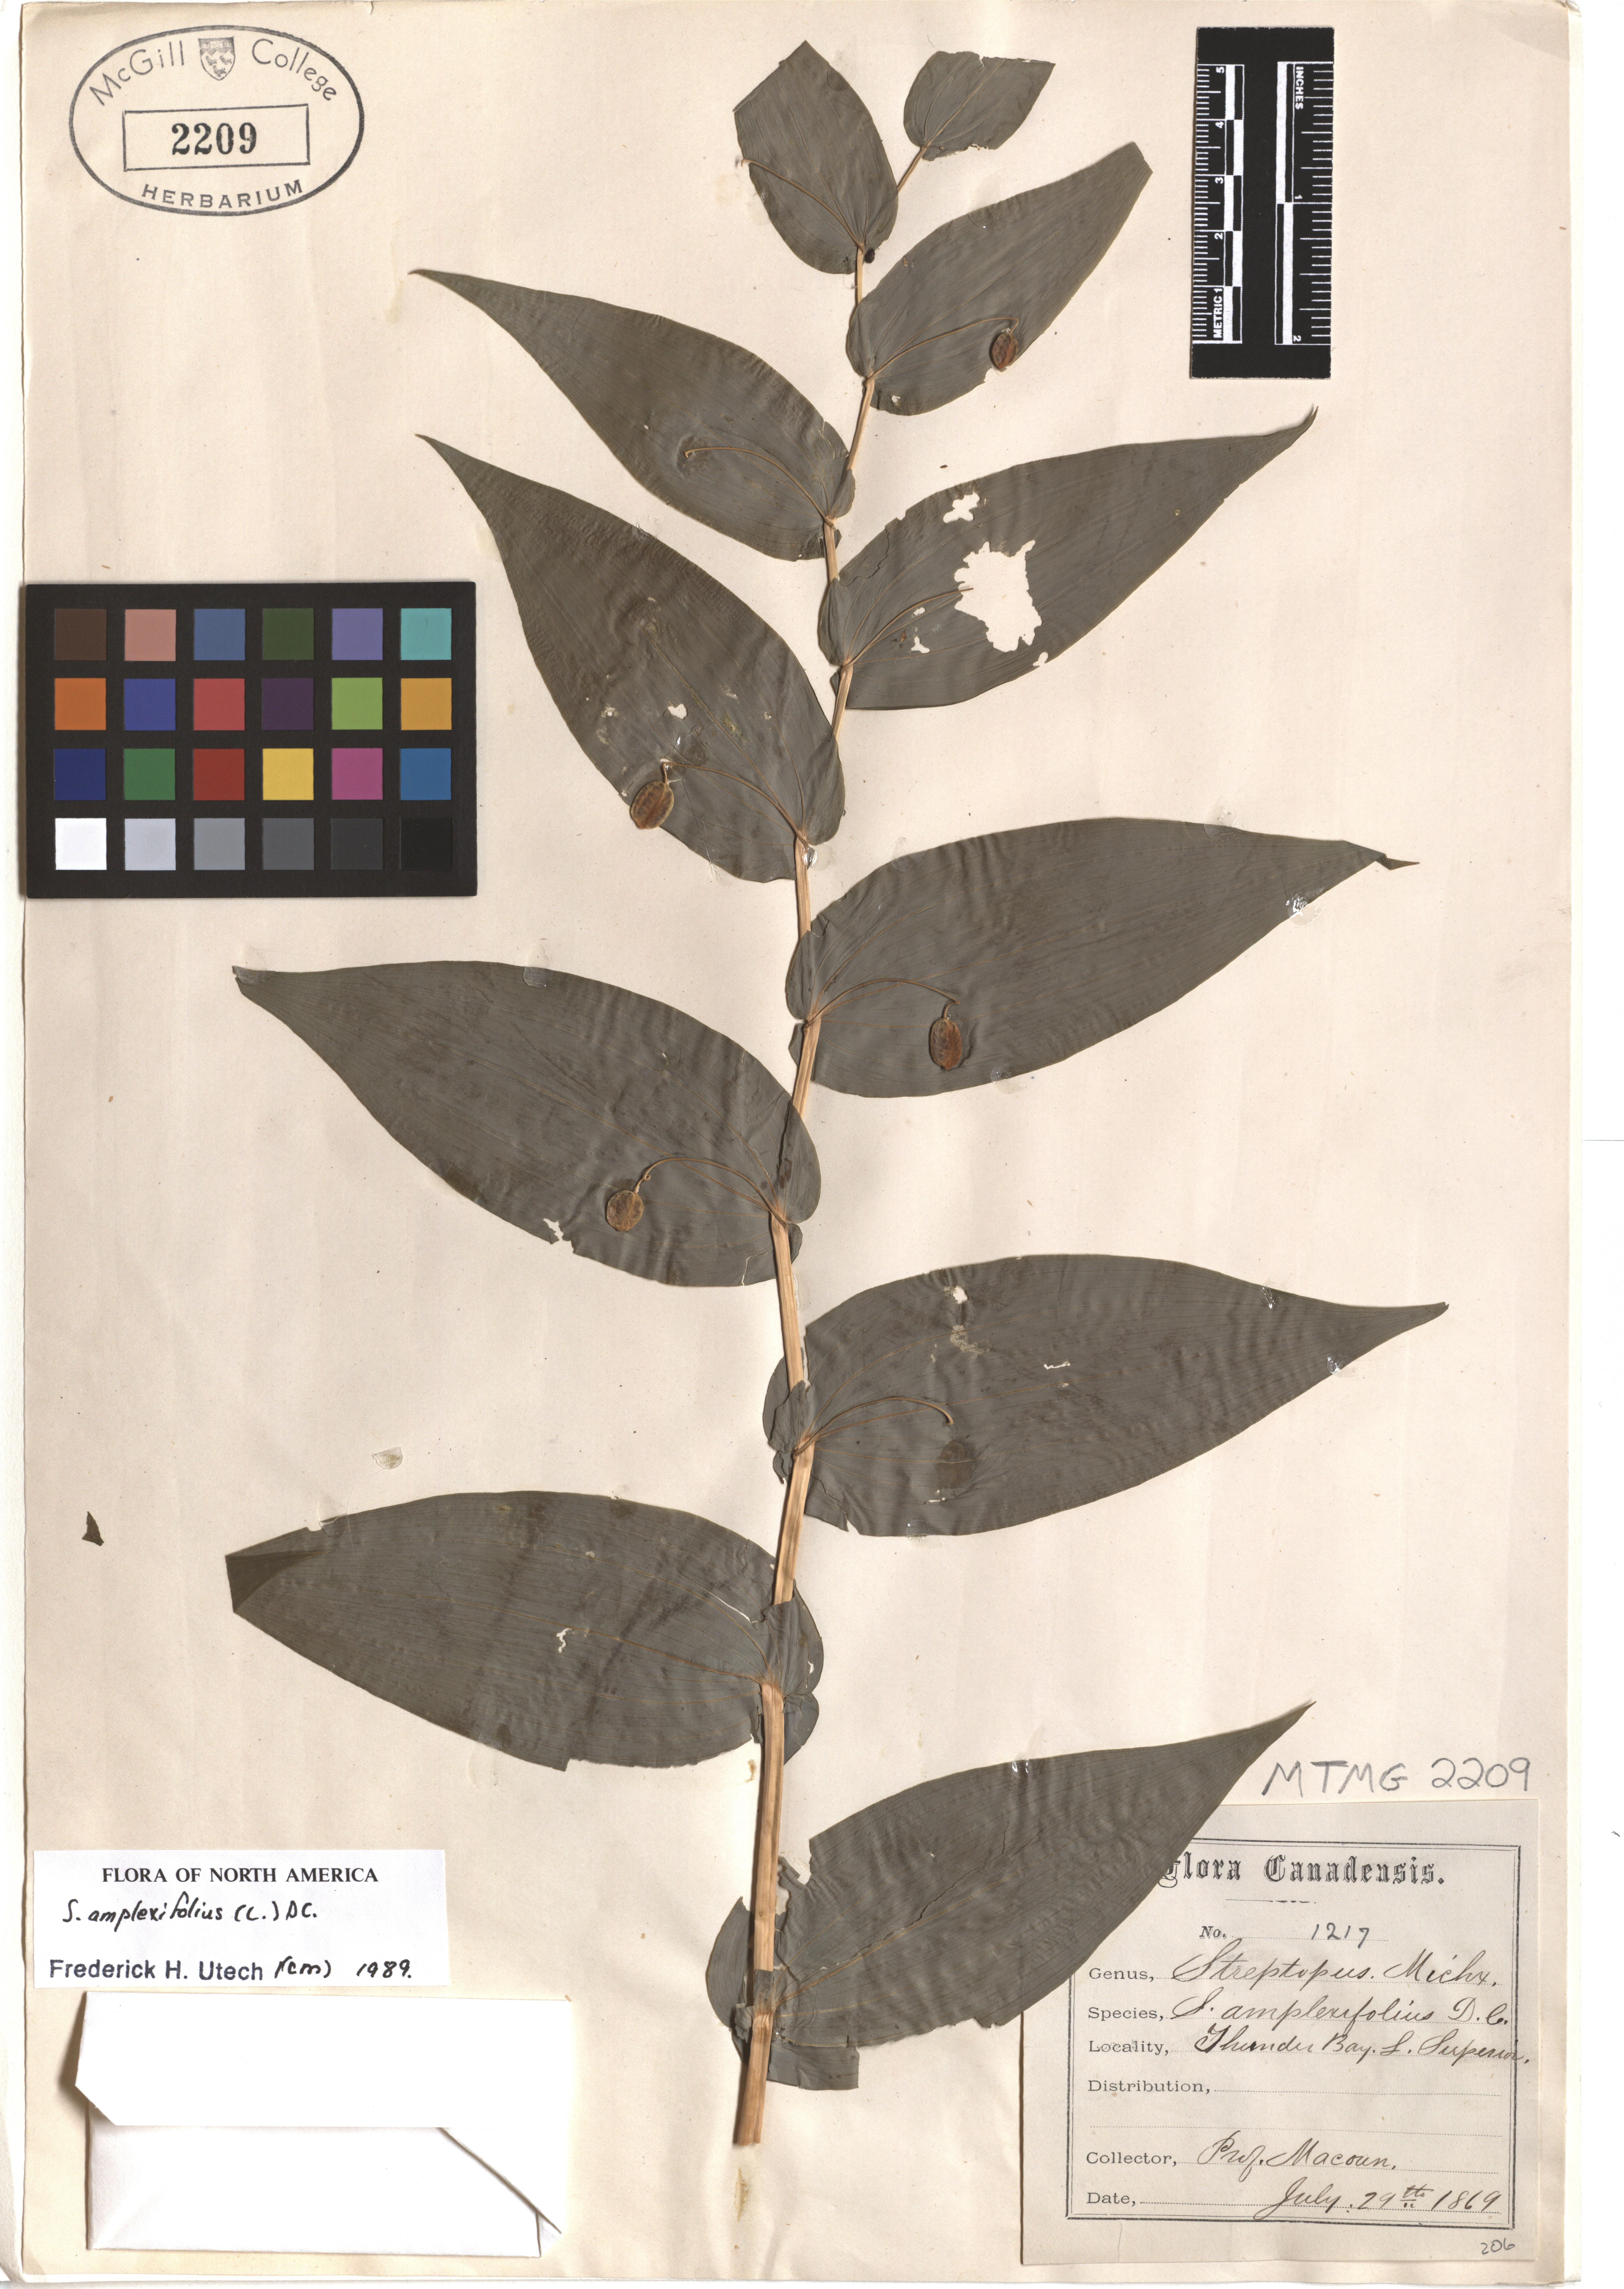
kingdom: Plantae
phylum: Tracheophyta
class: Liliopsida
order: Liliales
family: Liliaceae
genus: Streptopus
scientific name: Streptopus amplexifolius
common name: Clasp twisted stalk
